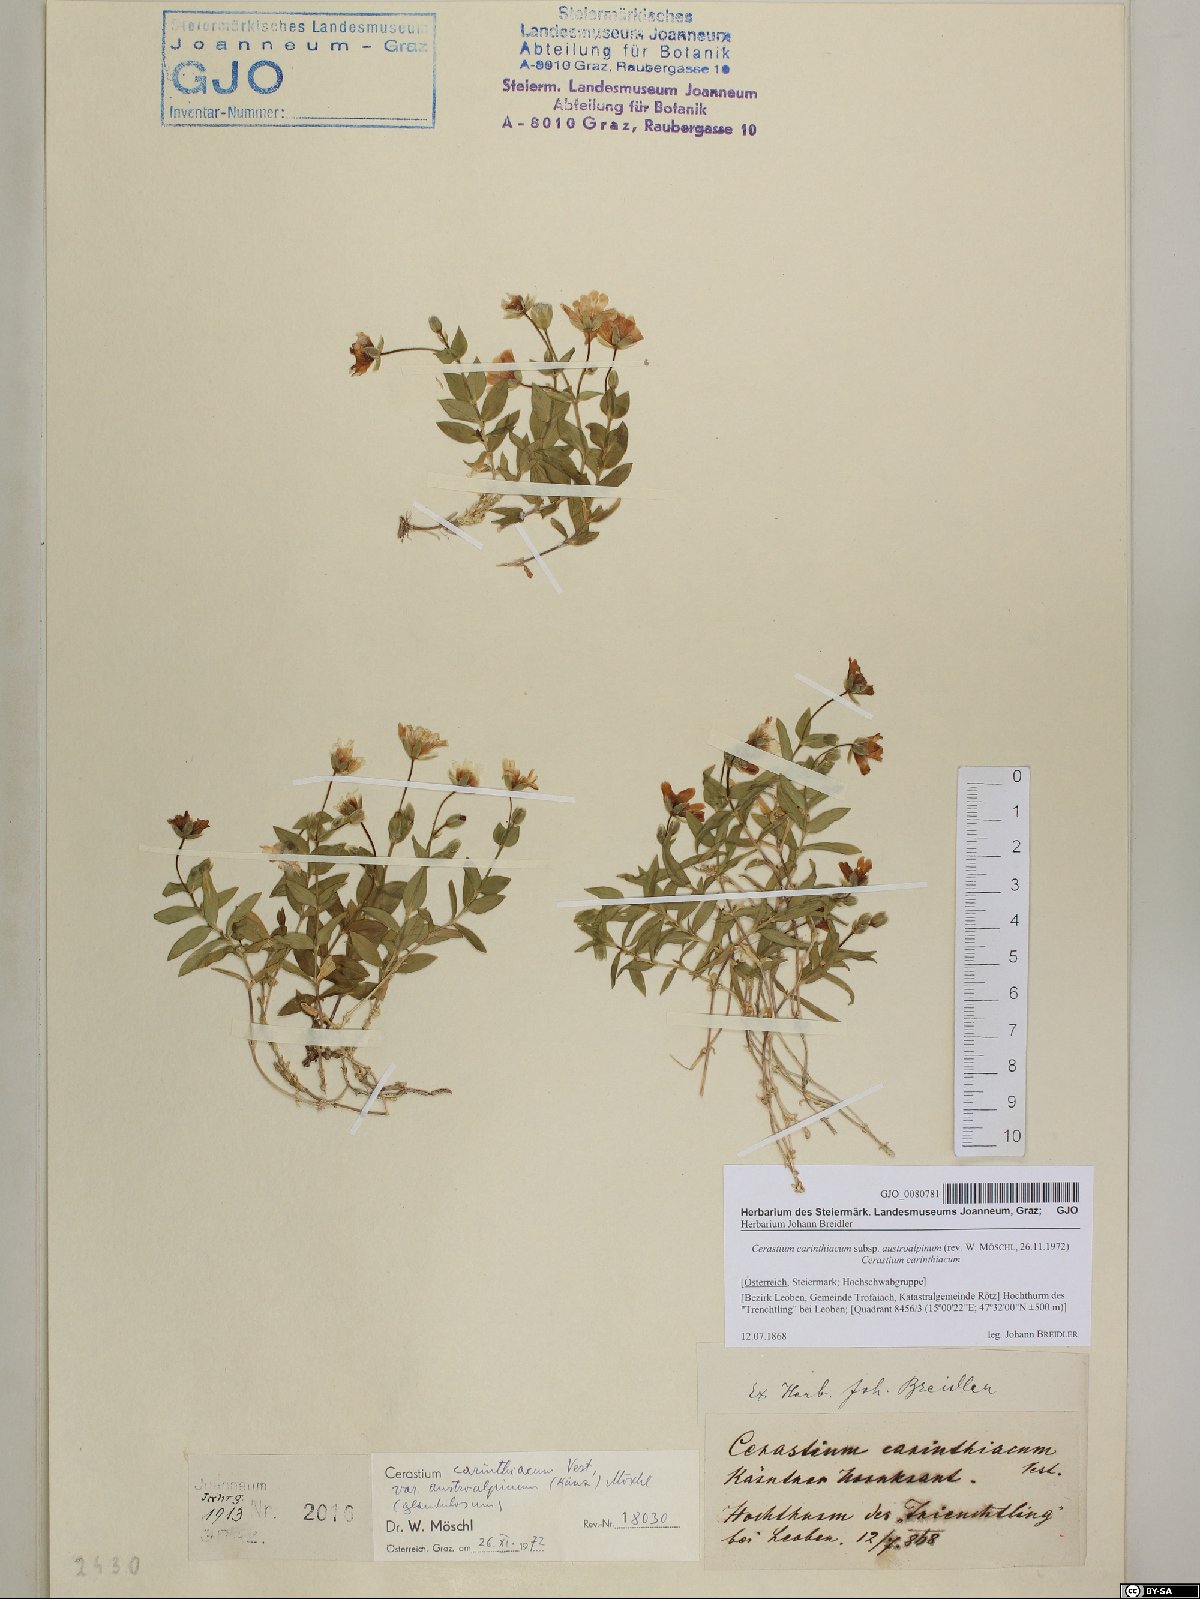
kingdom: Plantae
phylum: Tracheophyta
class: Magnoliopsida
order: Caryophyllales
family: Caryophyllaceae
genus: Cerastium
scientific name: Cerastium carinthiacum
